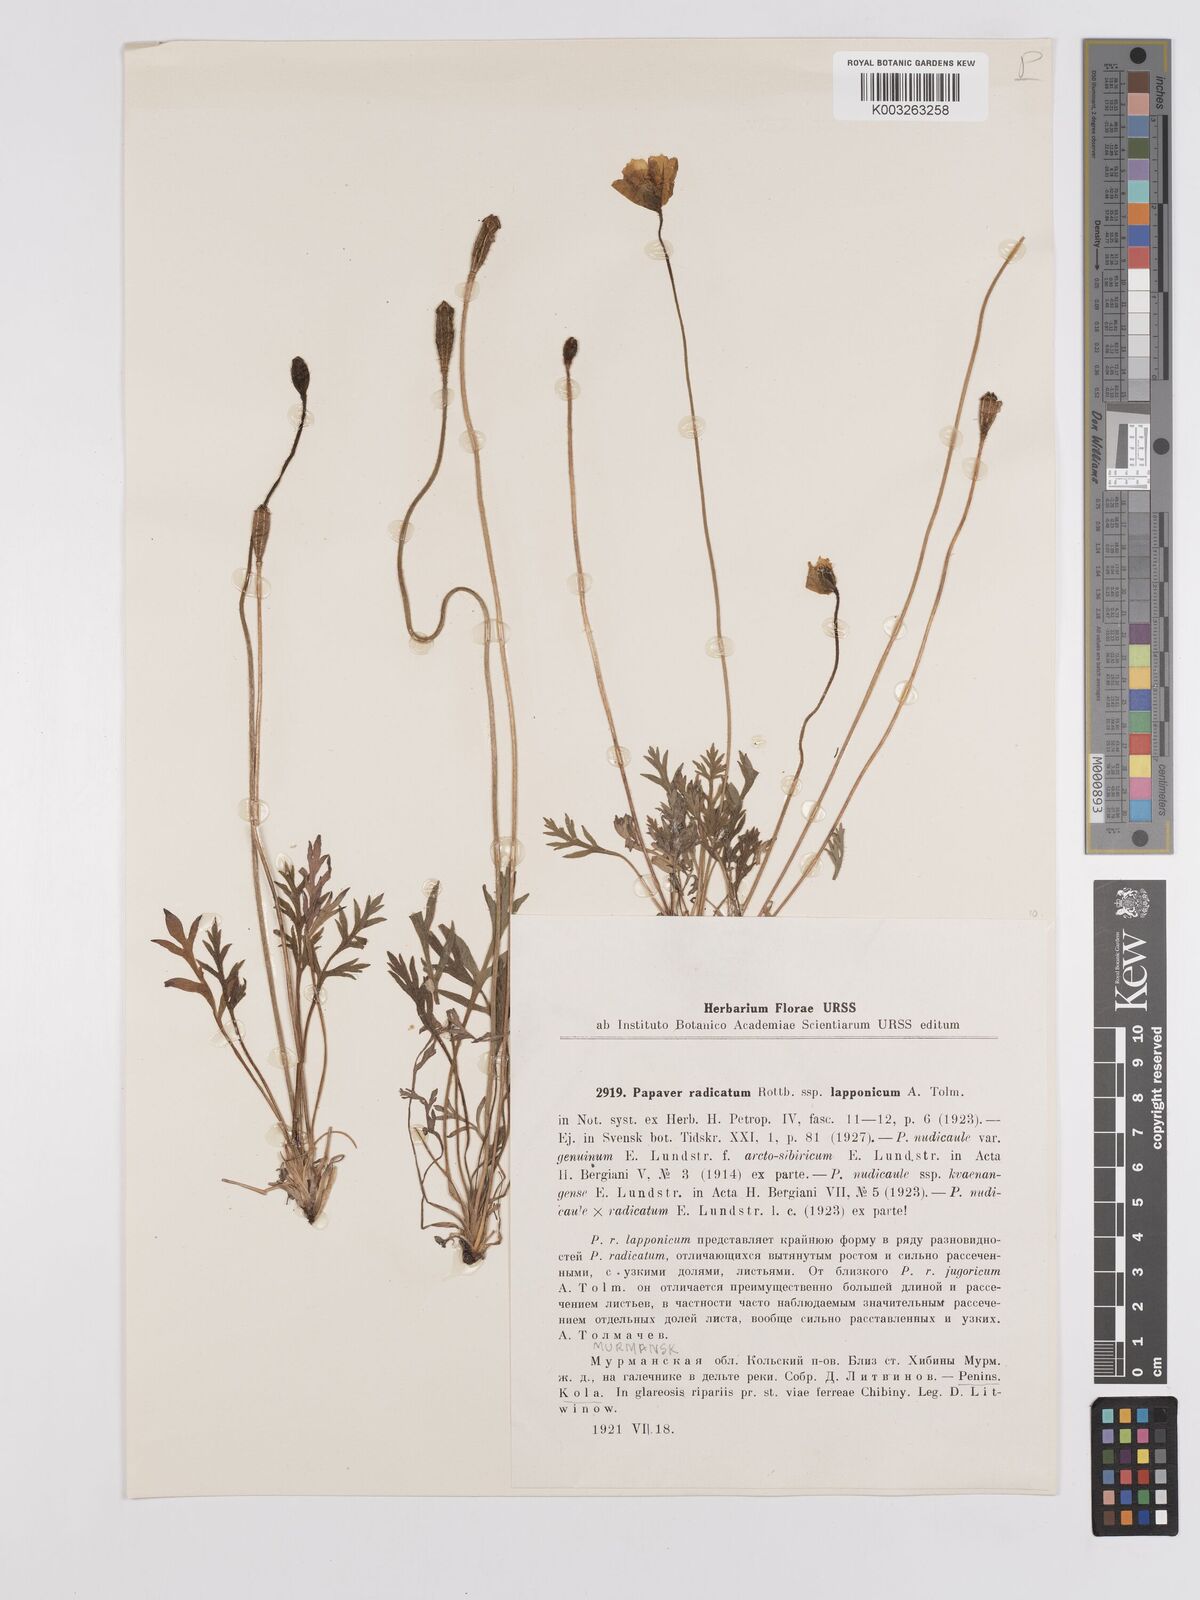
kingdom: Plantae
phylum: Tracheophyta
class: Magnoliopsida
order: Ranunculales
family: Papaveraceae
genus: Papaver
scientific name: Papaver radicatum
